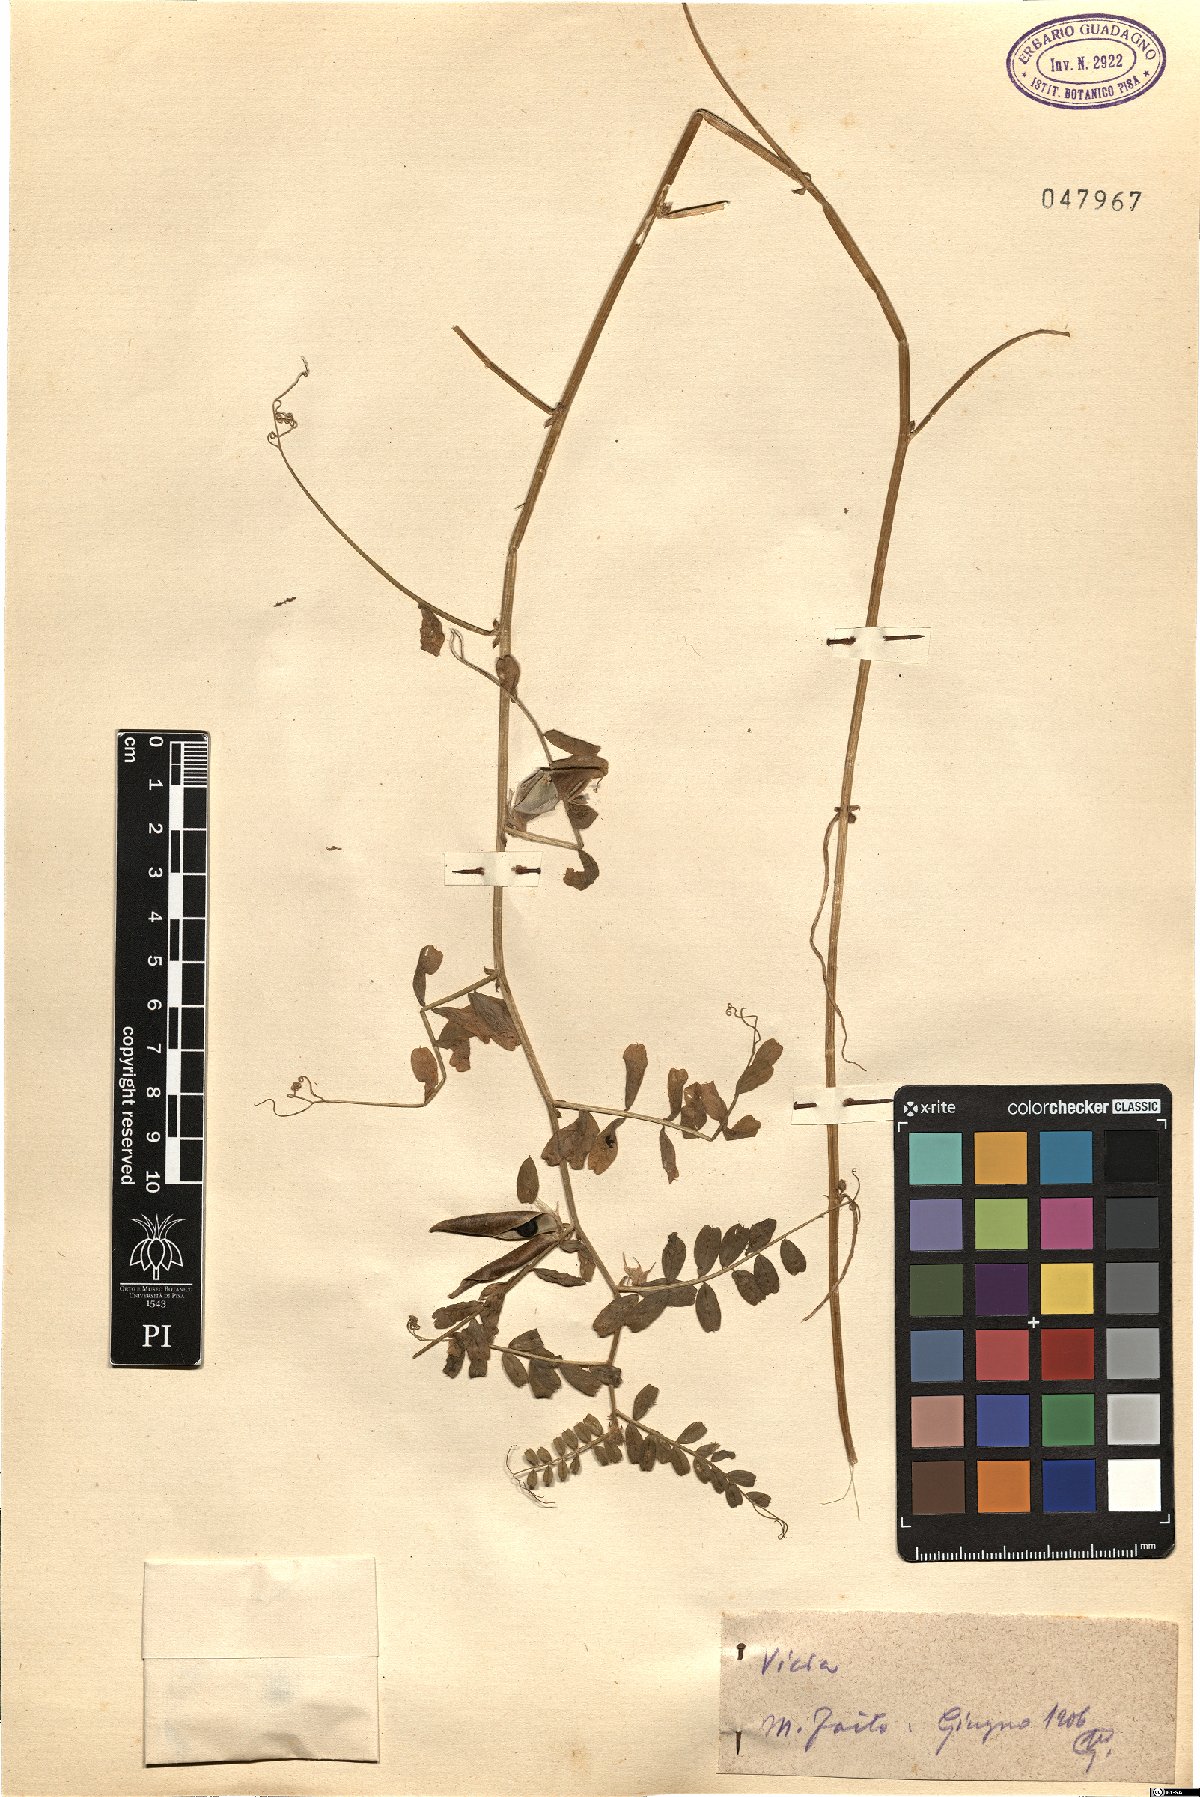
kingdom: Plantae
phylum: Tracheophyta
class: Magnoliopsida
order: Fabales
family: Fabaceae
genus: Vicia
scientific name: Vicia
